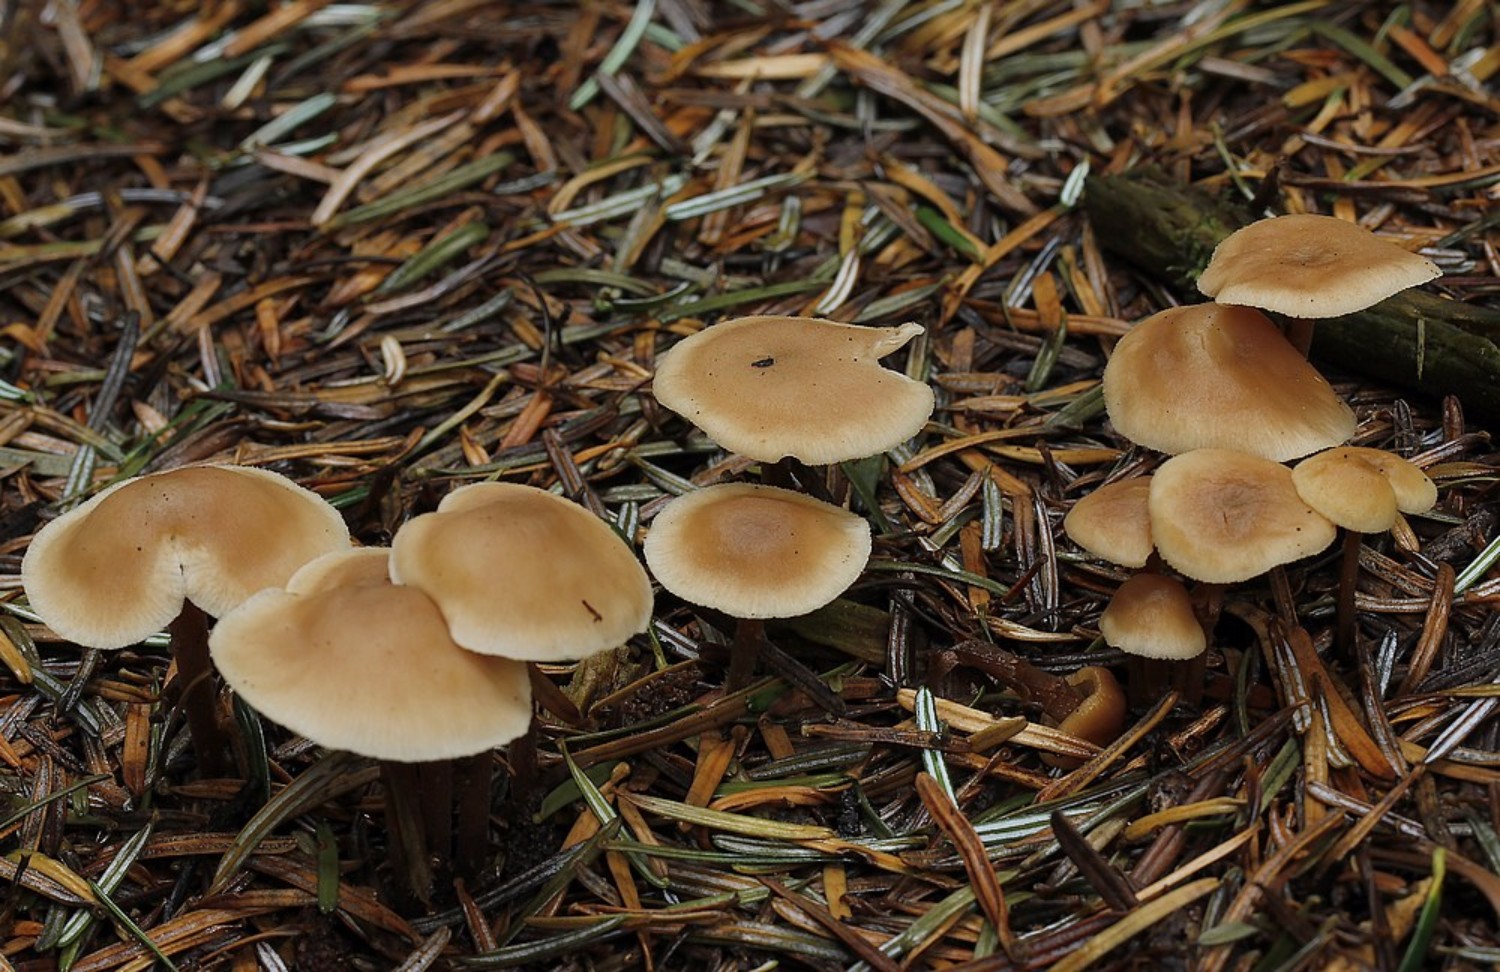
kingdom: Fungi
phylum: Basidiomycota
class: Agaricomycetes
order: Agaricales
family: Omphalotaceae
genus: Collybiopsis
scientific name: Collybiopsis confluens
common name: knippe-fladhat
